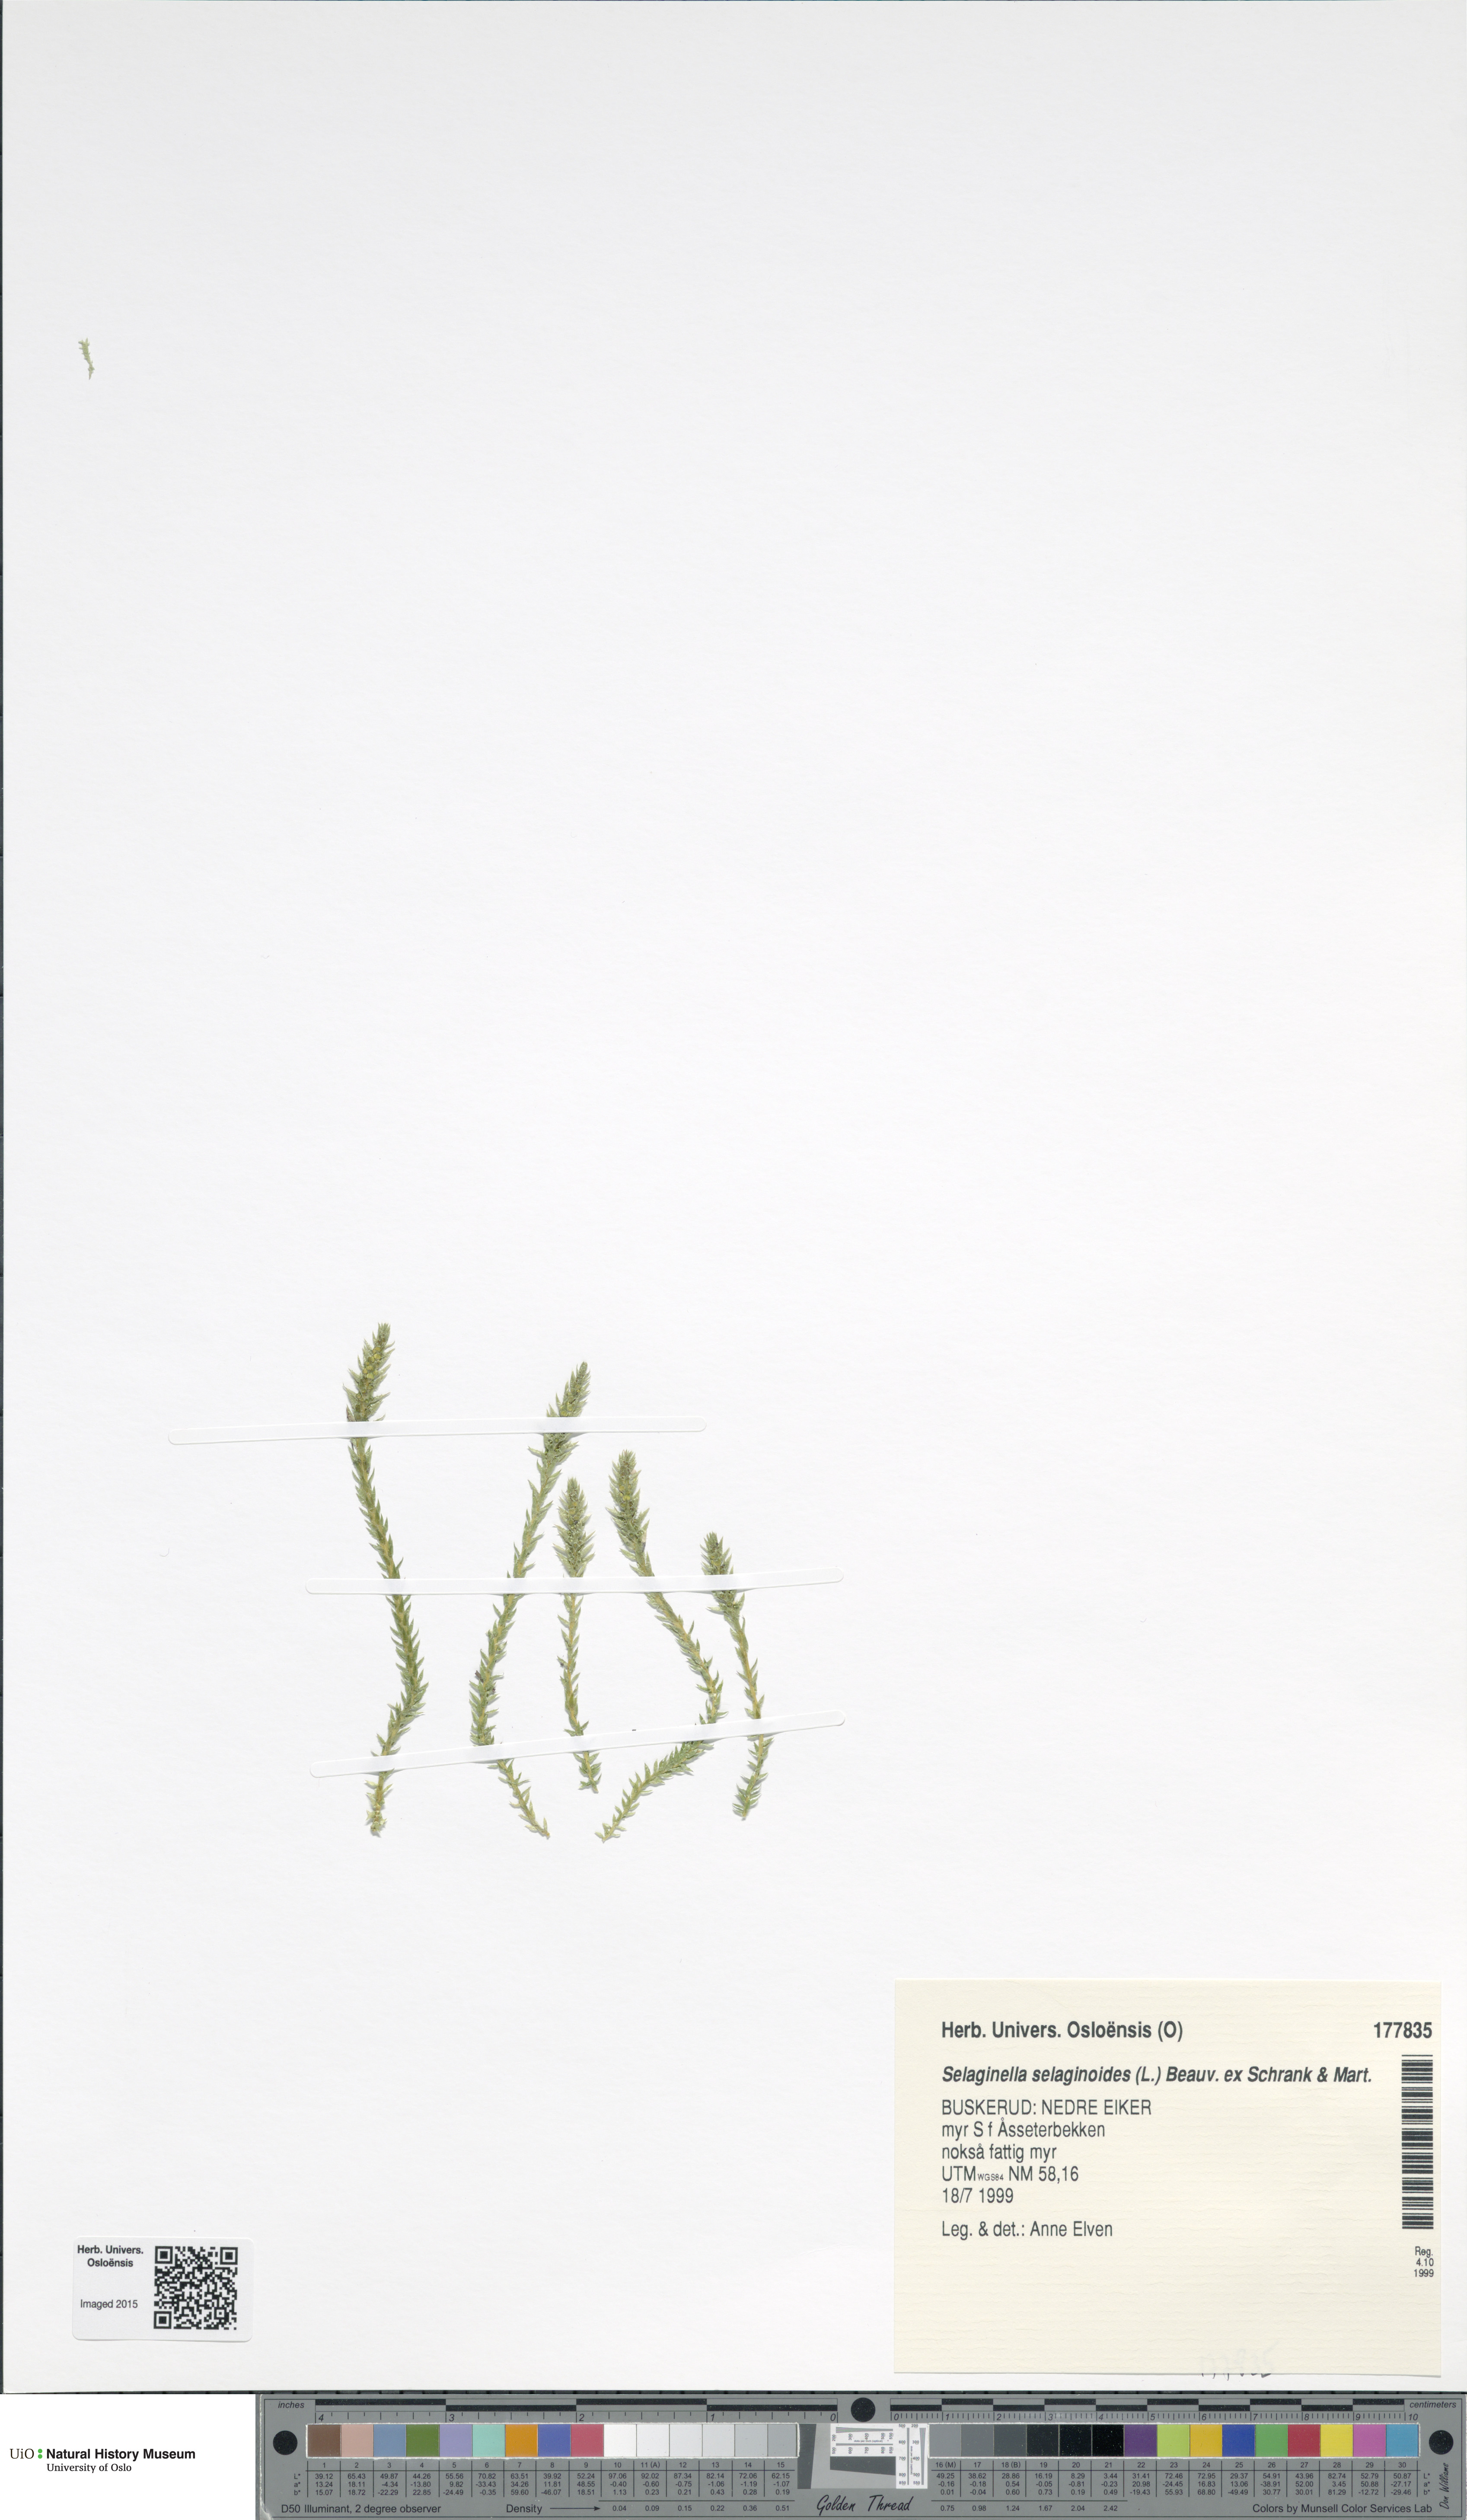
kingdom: Plantae
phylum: Tracheophyta
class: Lycopodiopsida
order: Selaginellales
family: Selaginellaceae
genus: Selaginella
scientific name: Selaginella selaginoides
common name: Prickly mountain-moss
